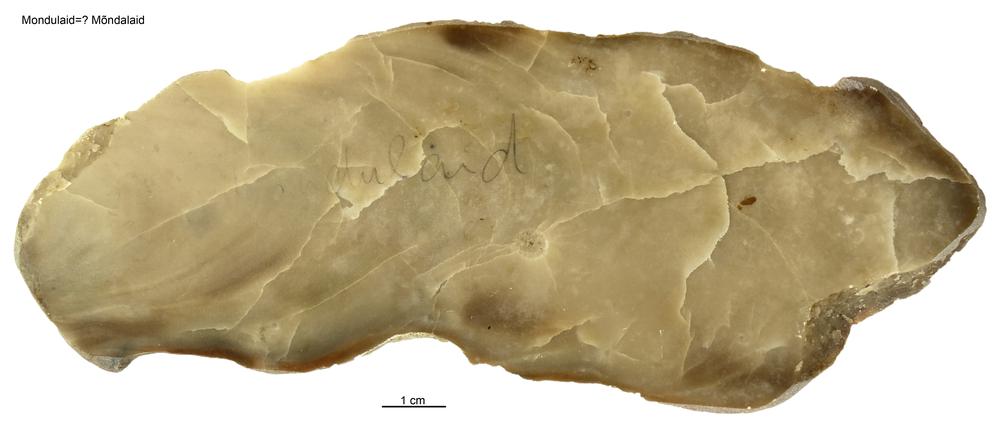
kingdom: Animalia
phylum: Porifera
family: Stromatoporidae
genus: Stromatopora
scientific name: Stromatopora
